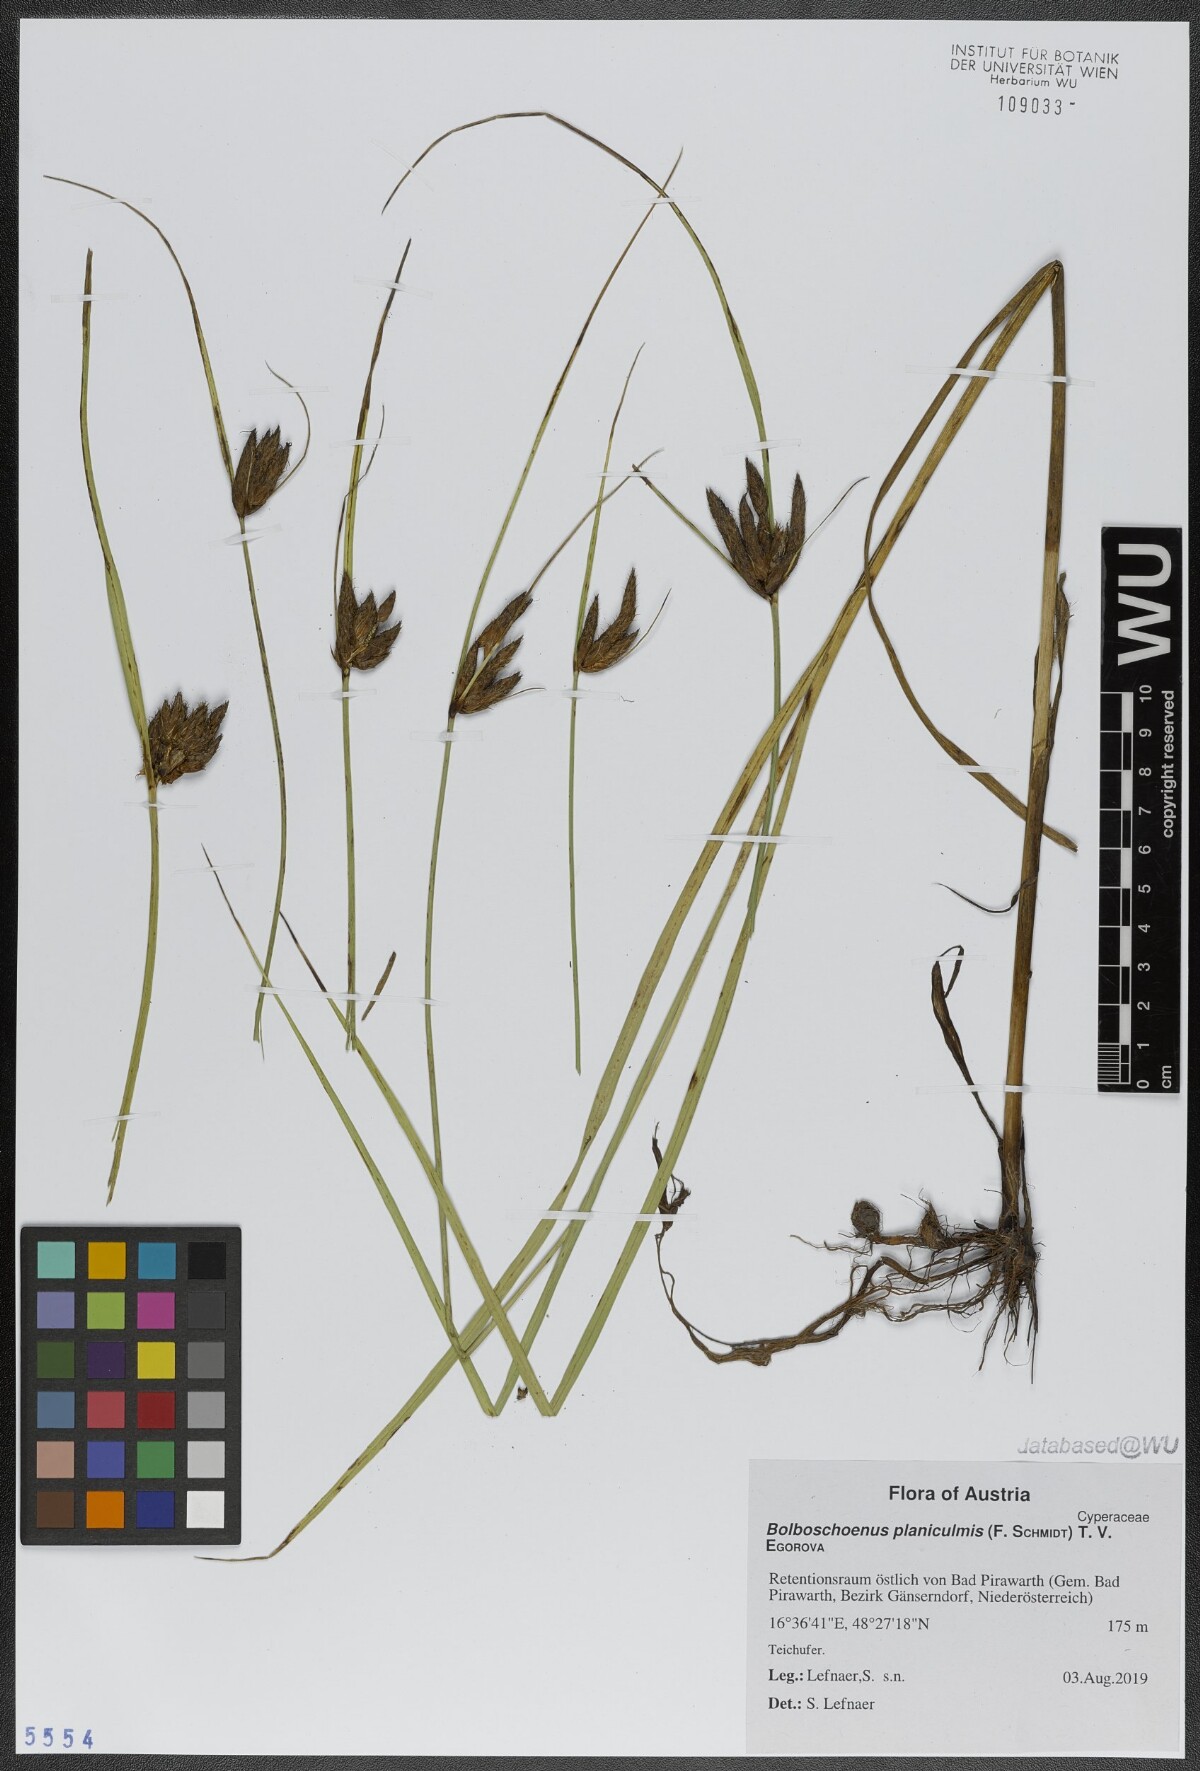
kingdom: Plantae
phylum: Tracheophyta
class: Liliopsida
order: Poales
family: Cyperaceae
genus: Bolboschoenus
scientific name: Bolboschoenus planiculmis
